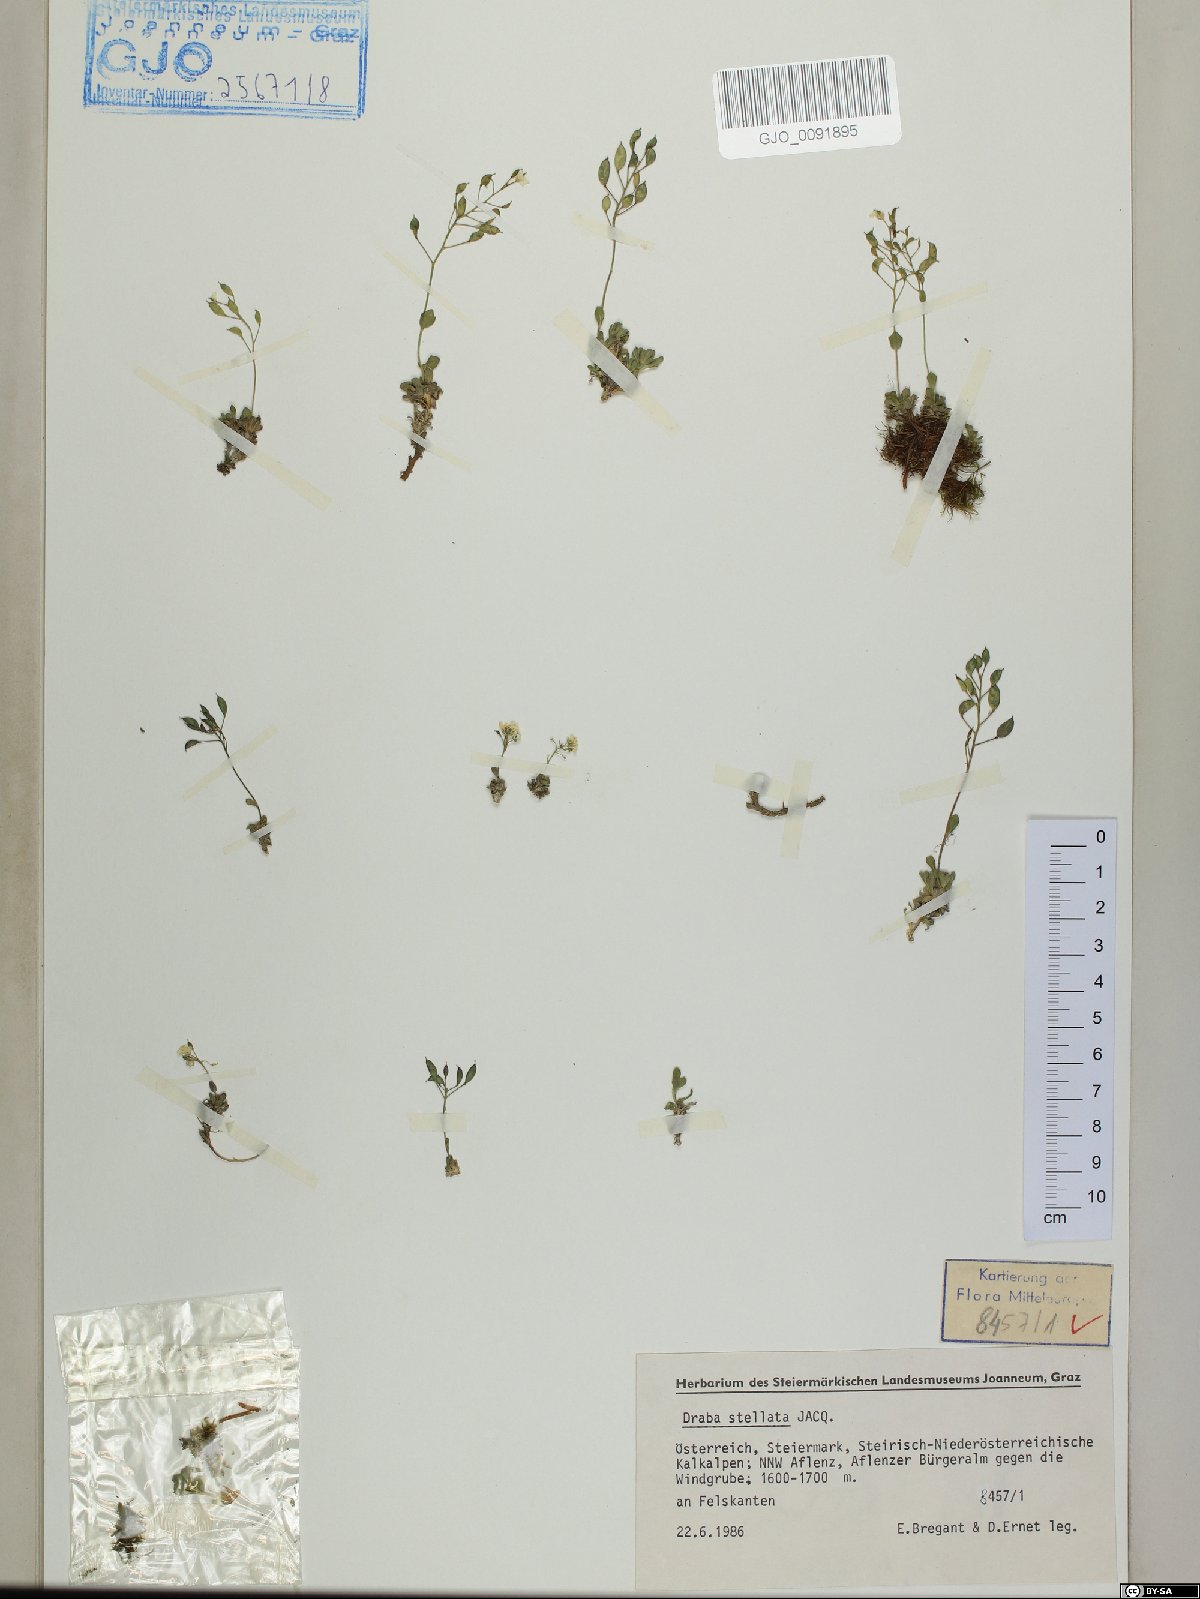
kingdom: Plantae
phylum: Tracheophyta
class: Magnoliopsida
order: Brassicales
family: Brassicaceae
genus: Draba
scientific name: Draba stellata
